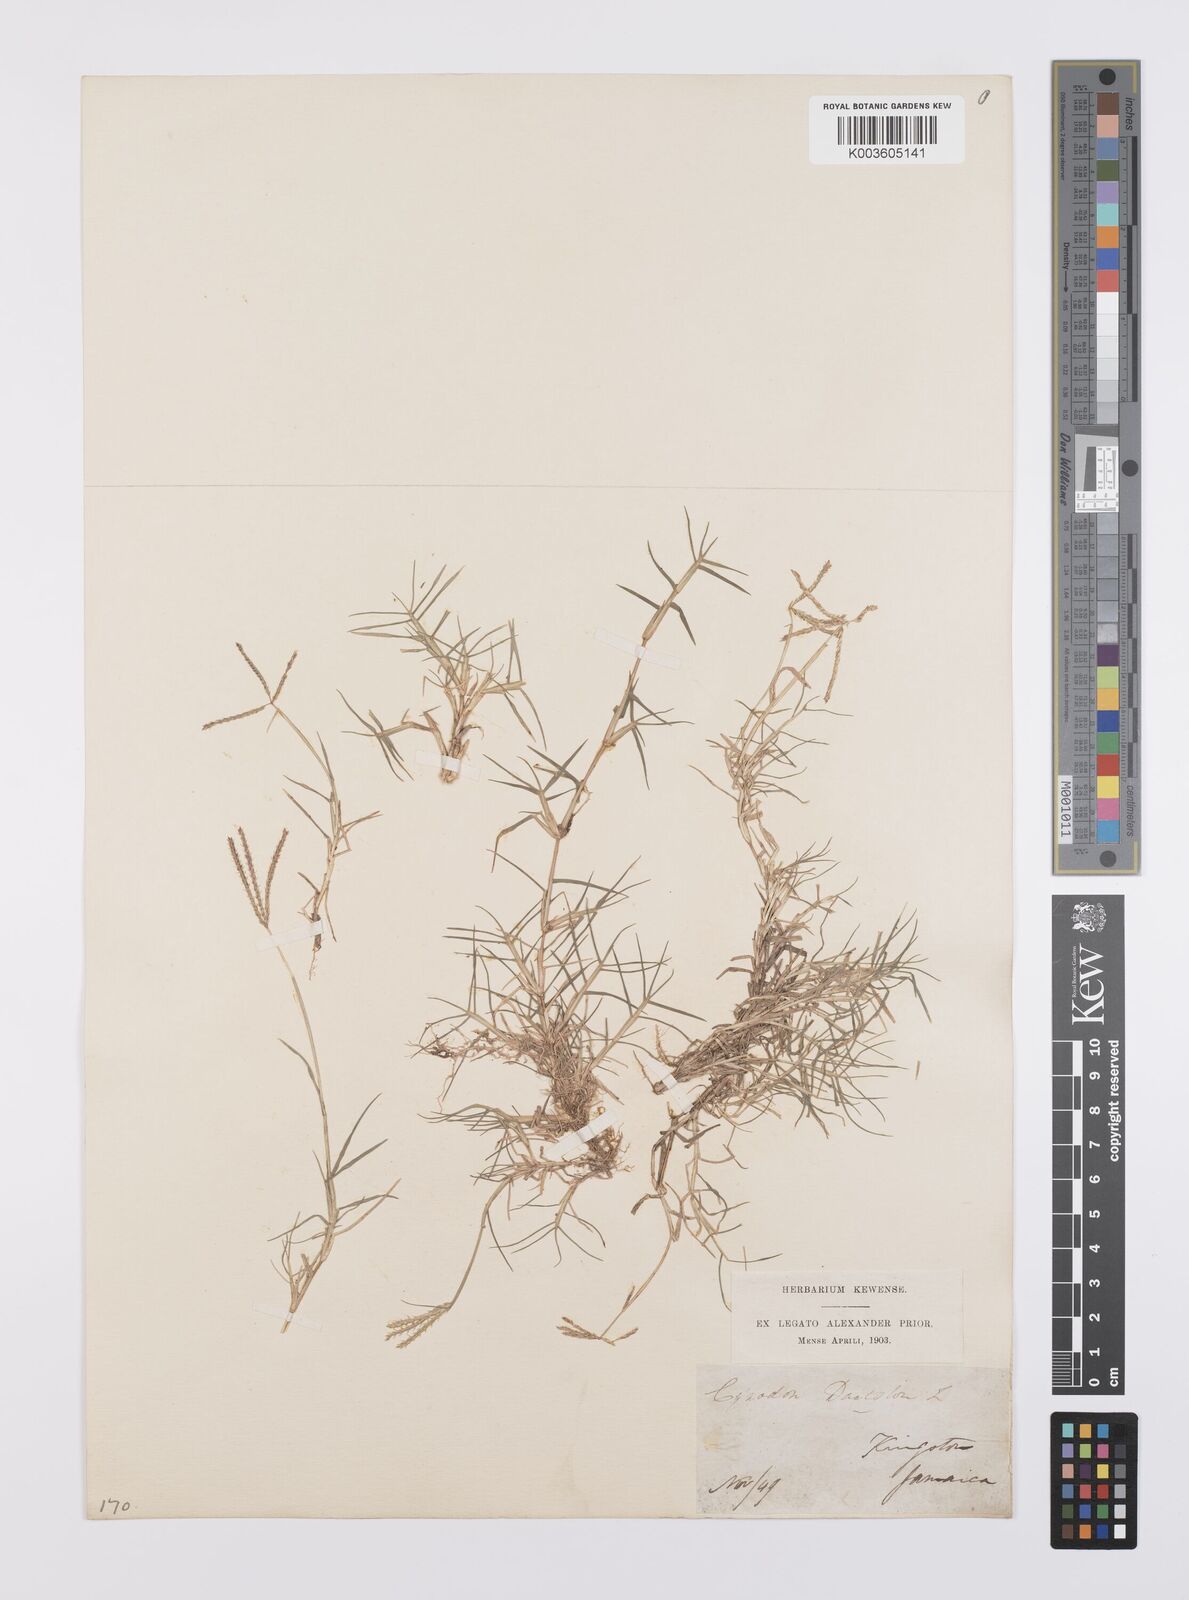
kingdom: Plantae
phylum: Tracheophyta
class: Liliopsida
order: Poales
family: Poaceae
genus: Cynodon
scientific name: Cynodon dactylon
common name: Bermuda grass
